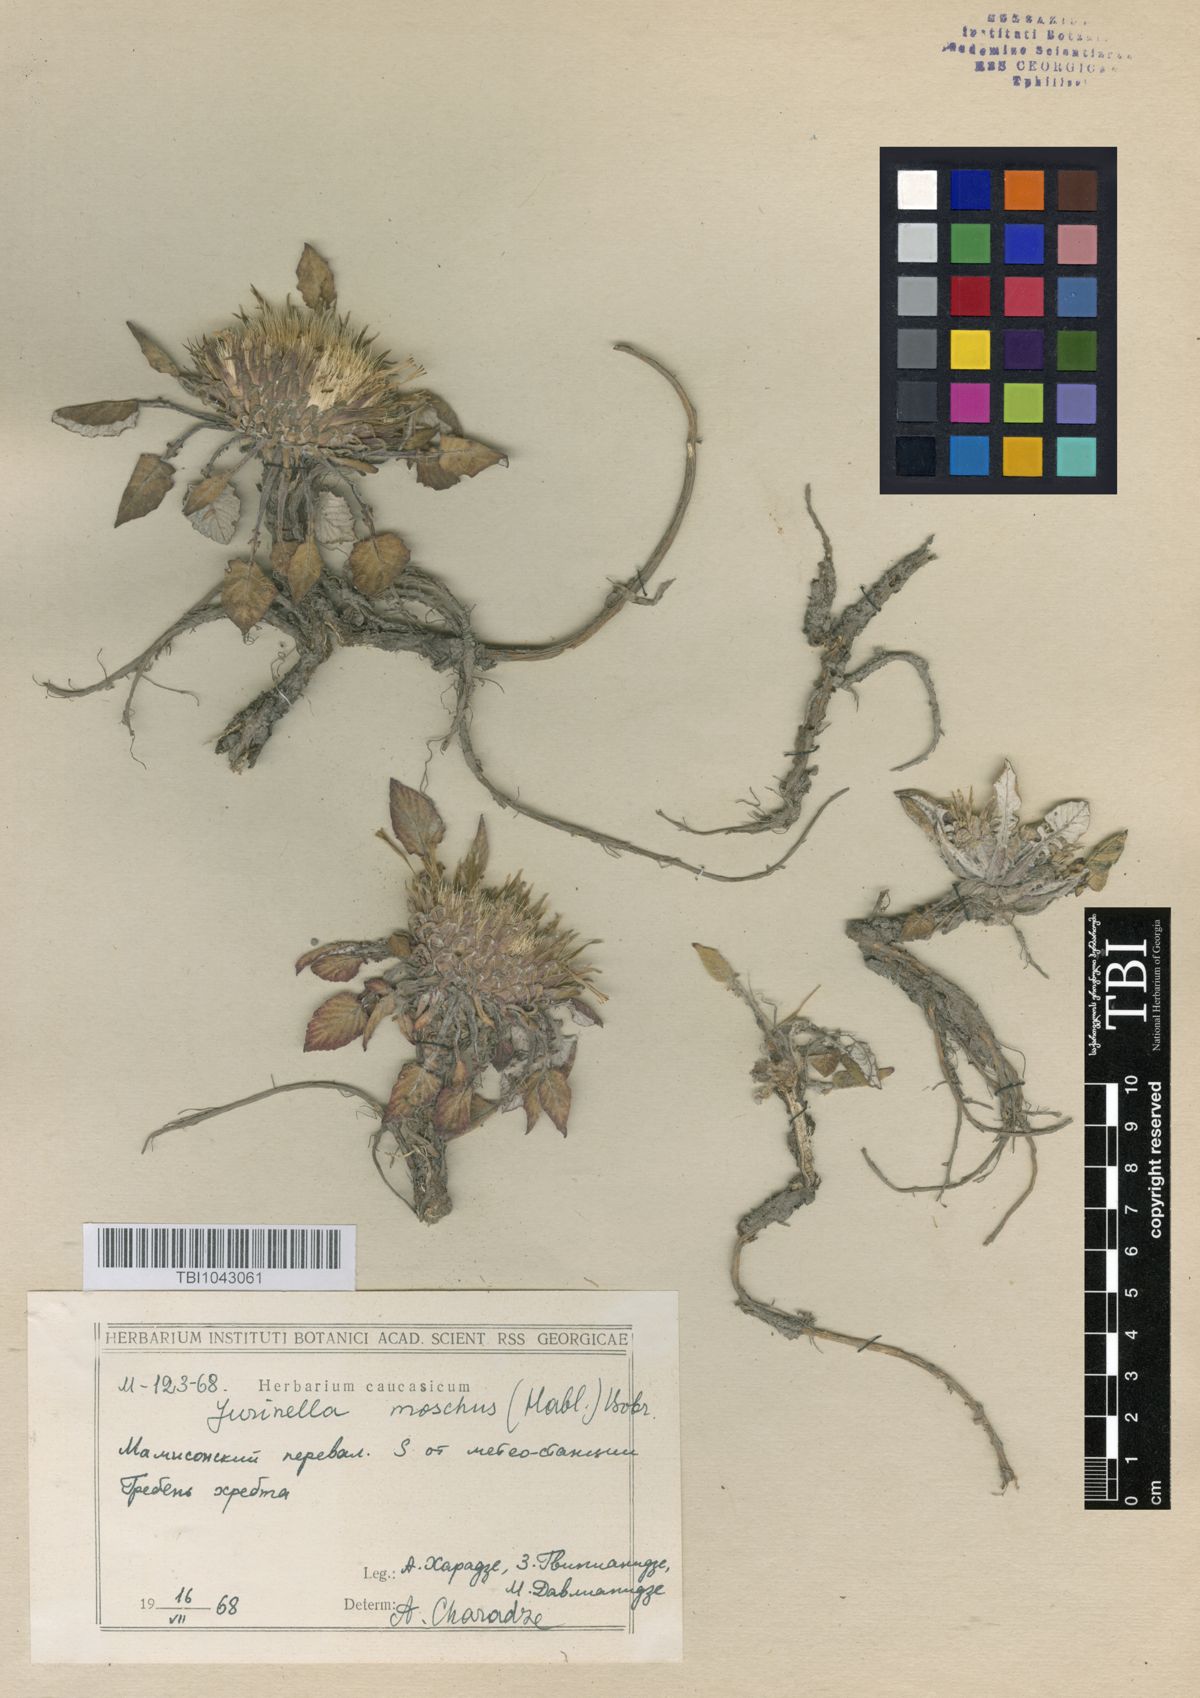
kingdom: Plantae
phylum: Tracheophyta
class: Magnoliopsida
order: Asterales
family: Asteraceae
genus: Jurinea
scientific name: Jurinea moschus
